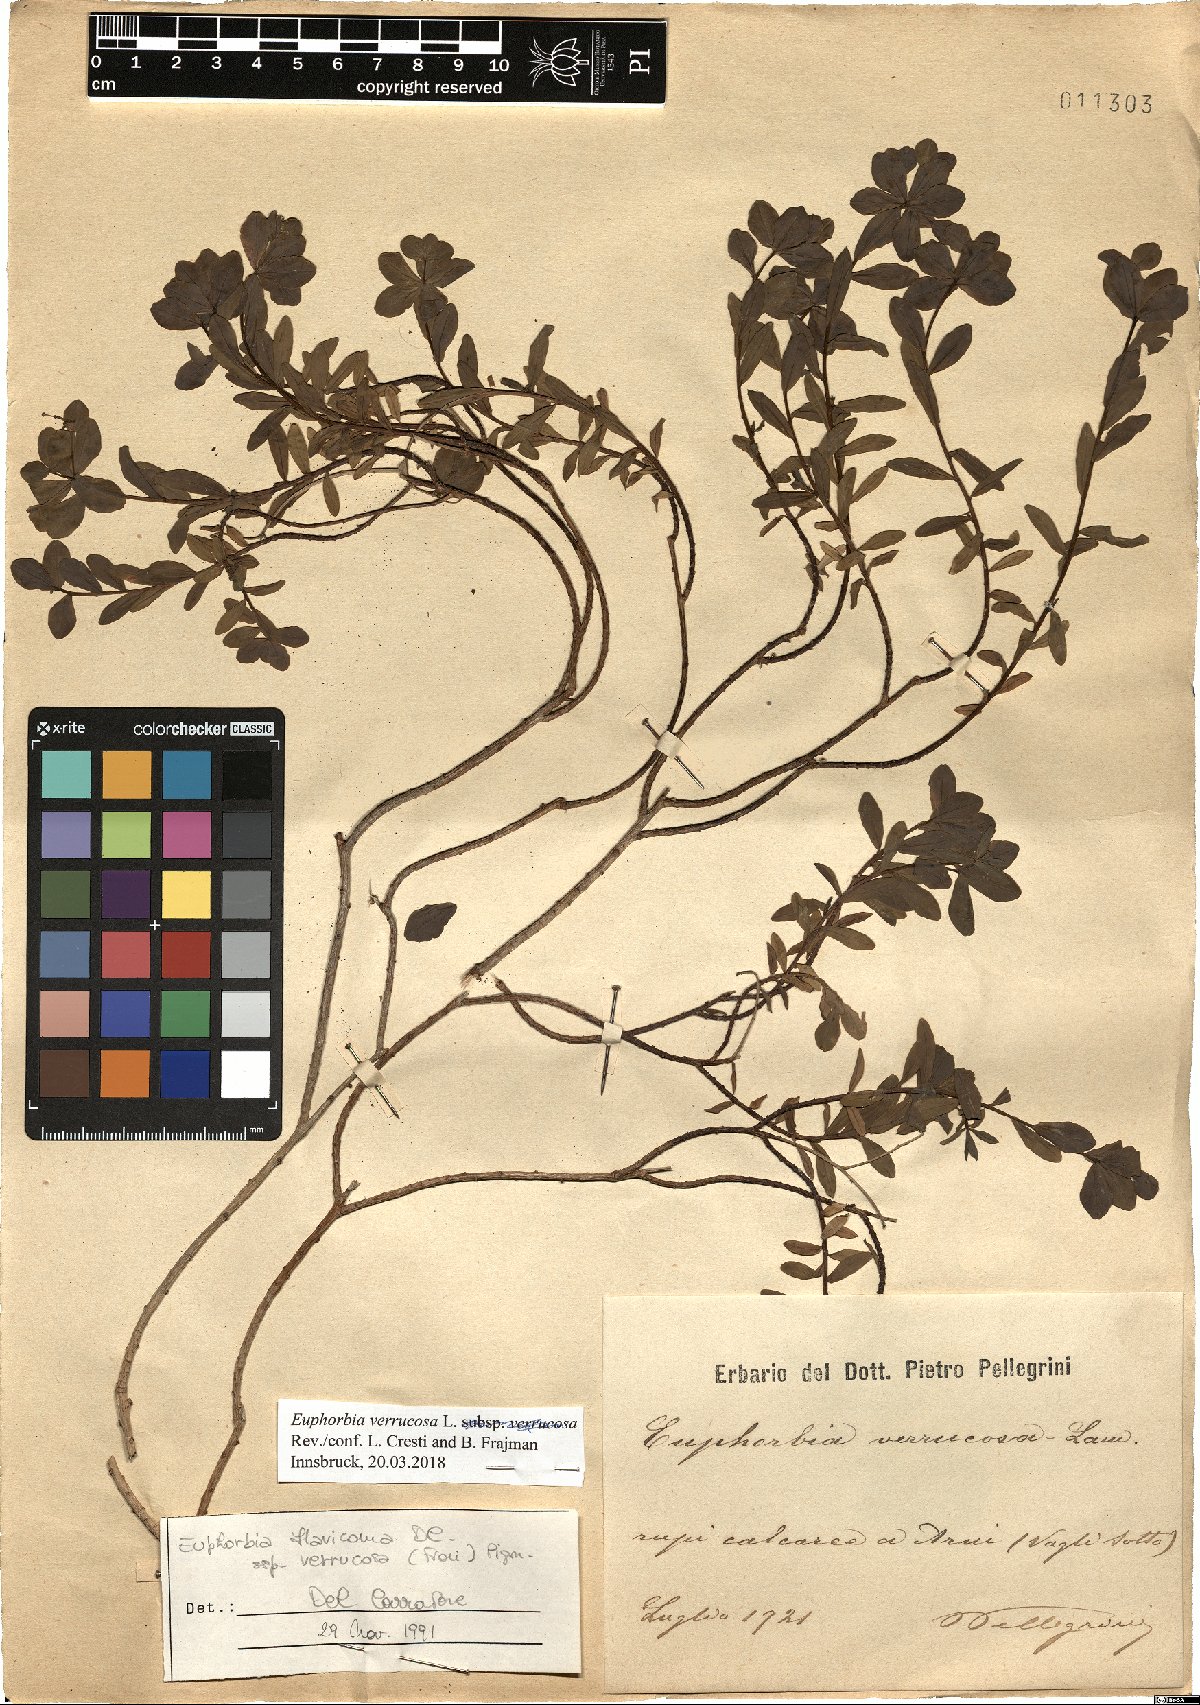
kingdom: Plantae
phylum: Tracheophyta
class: Magnoliopsida
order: Malpighiales
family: Euphorbiaceae
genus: Euphorbia
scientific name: Euphorbia verrucosa
